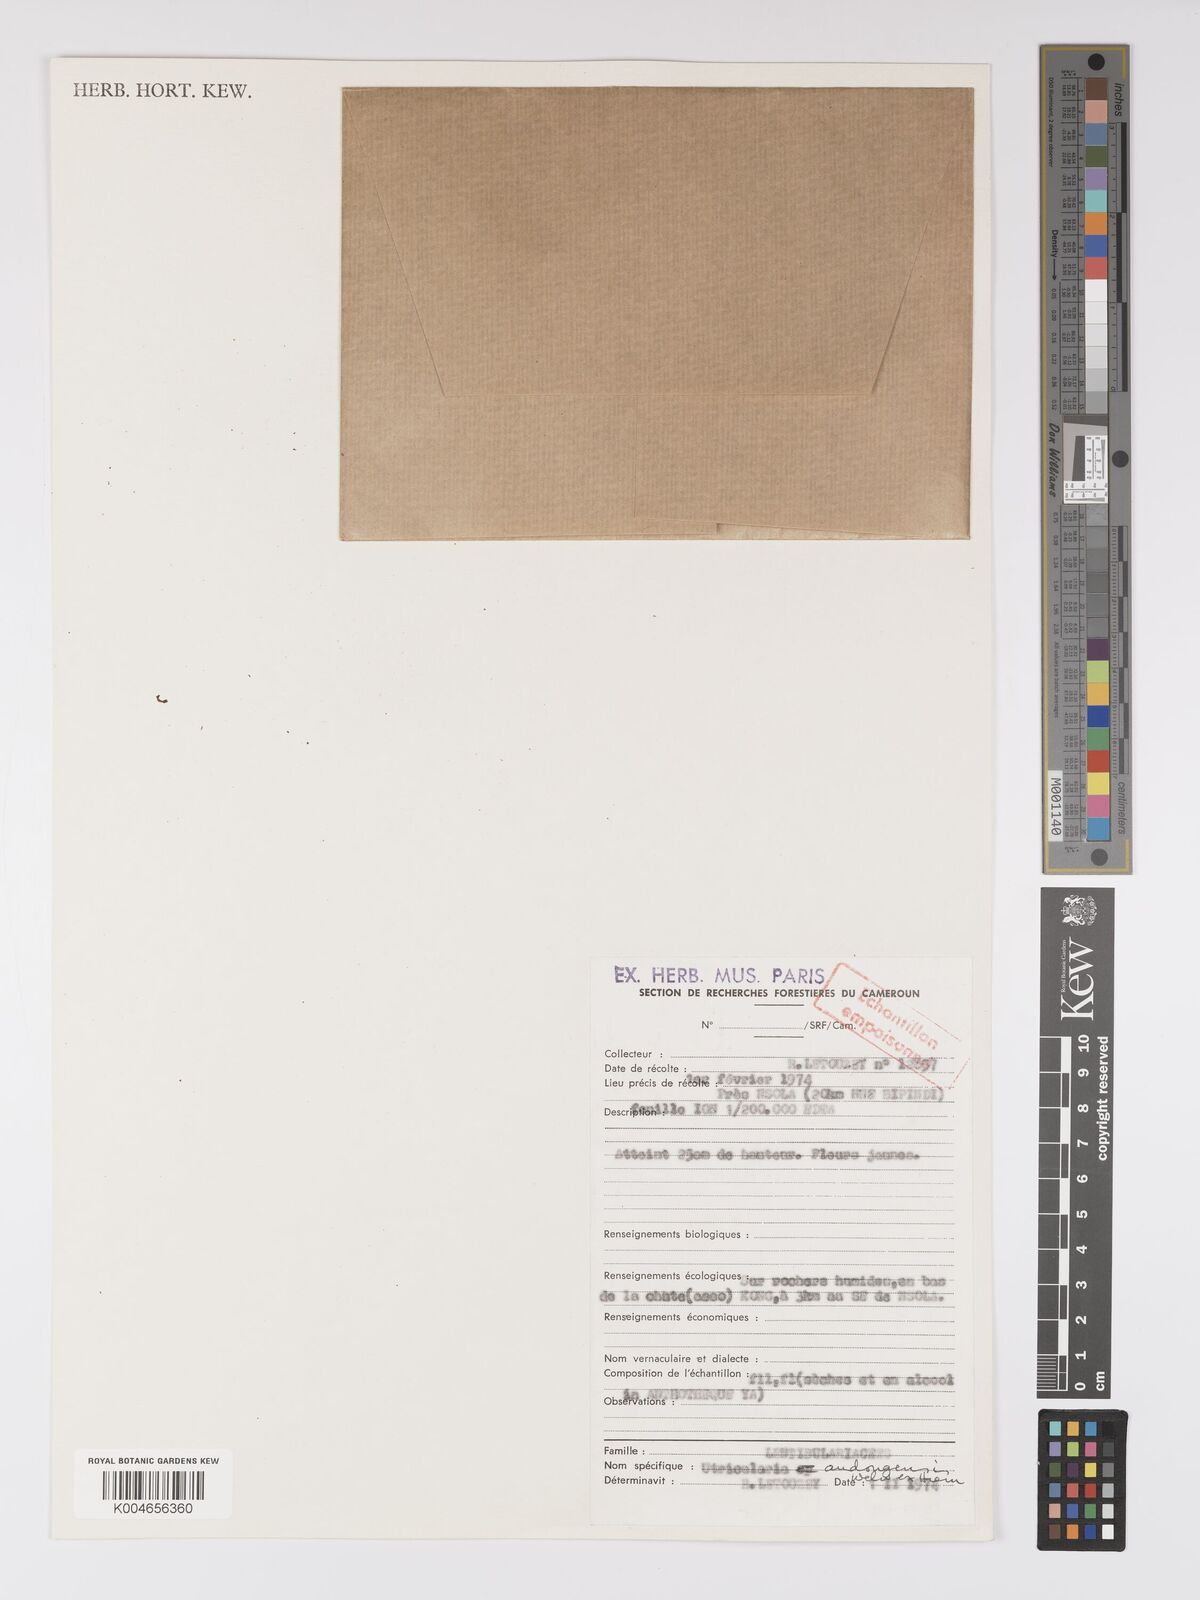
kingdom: Plantae
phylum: Tracheophyta
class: Magnoliopsida
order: Lamiales
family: Lentibulariaceae
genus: Utricularia
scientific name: Utricularia andongensis
